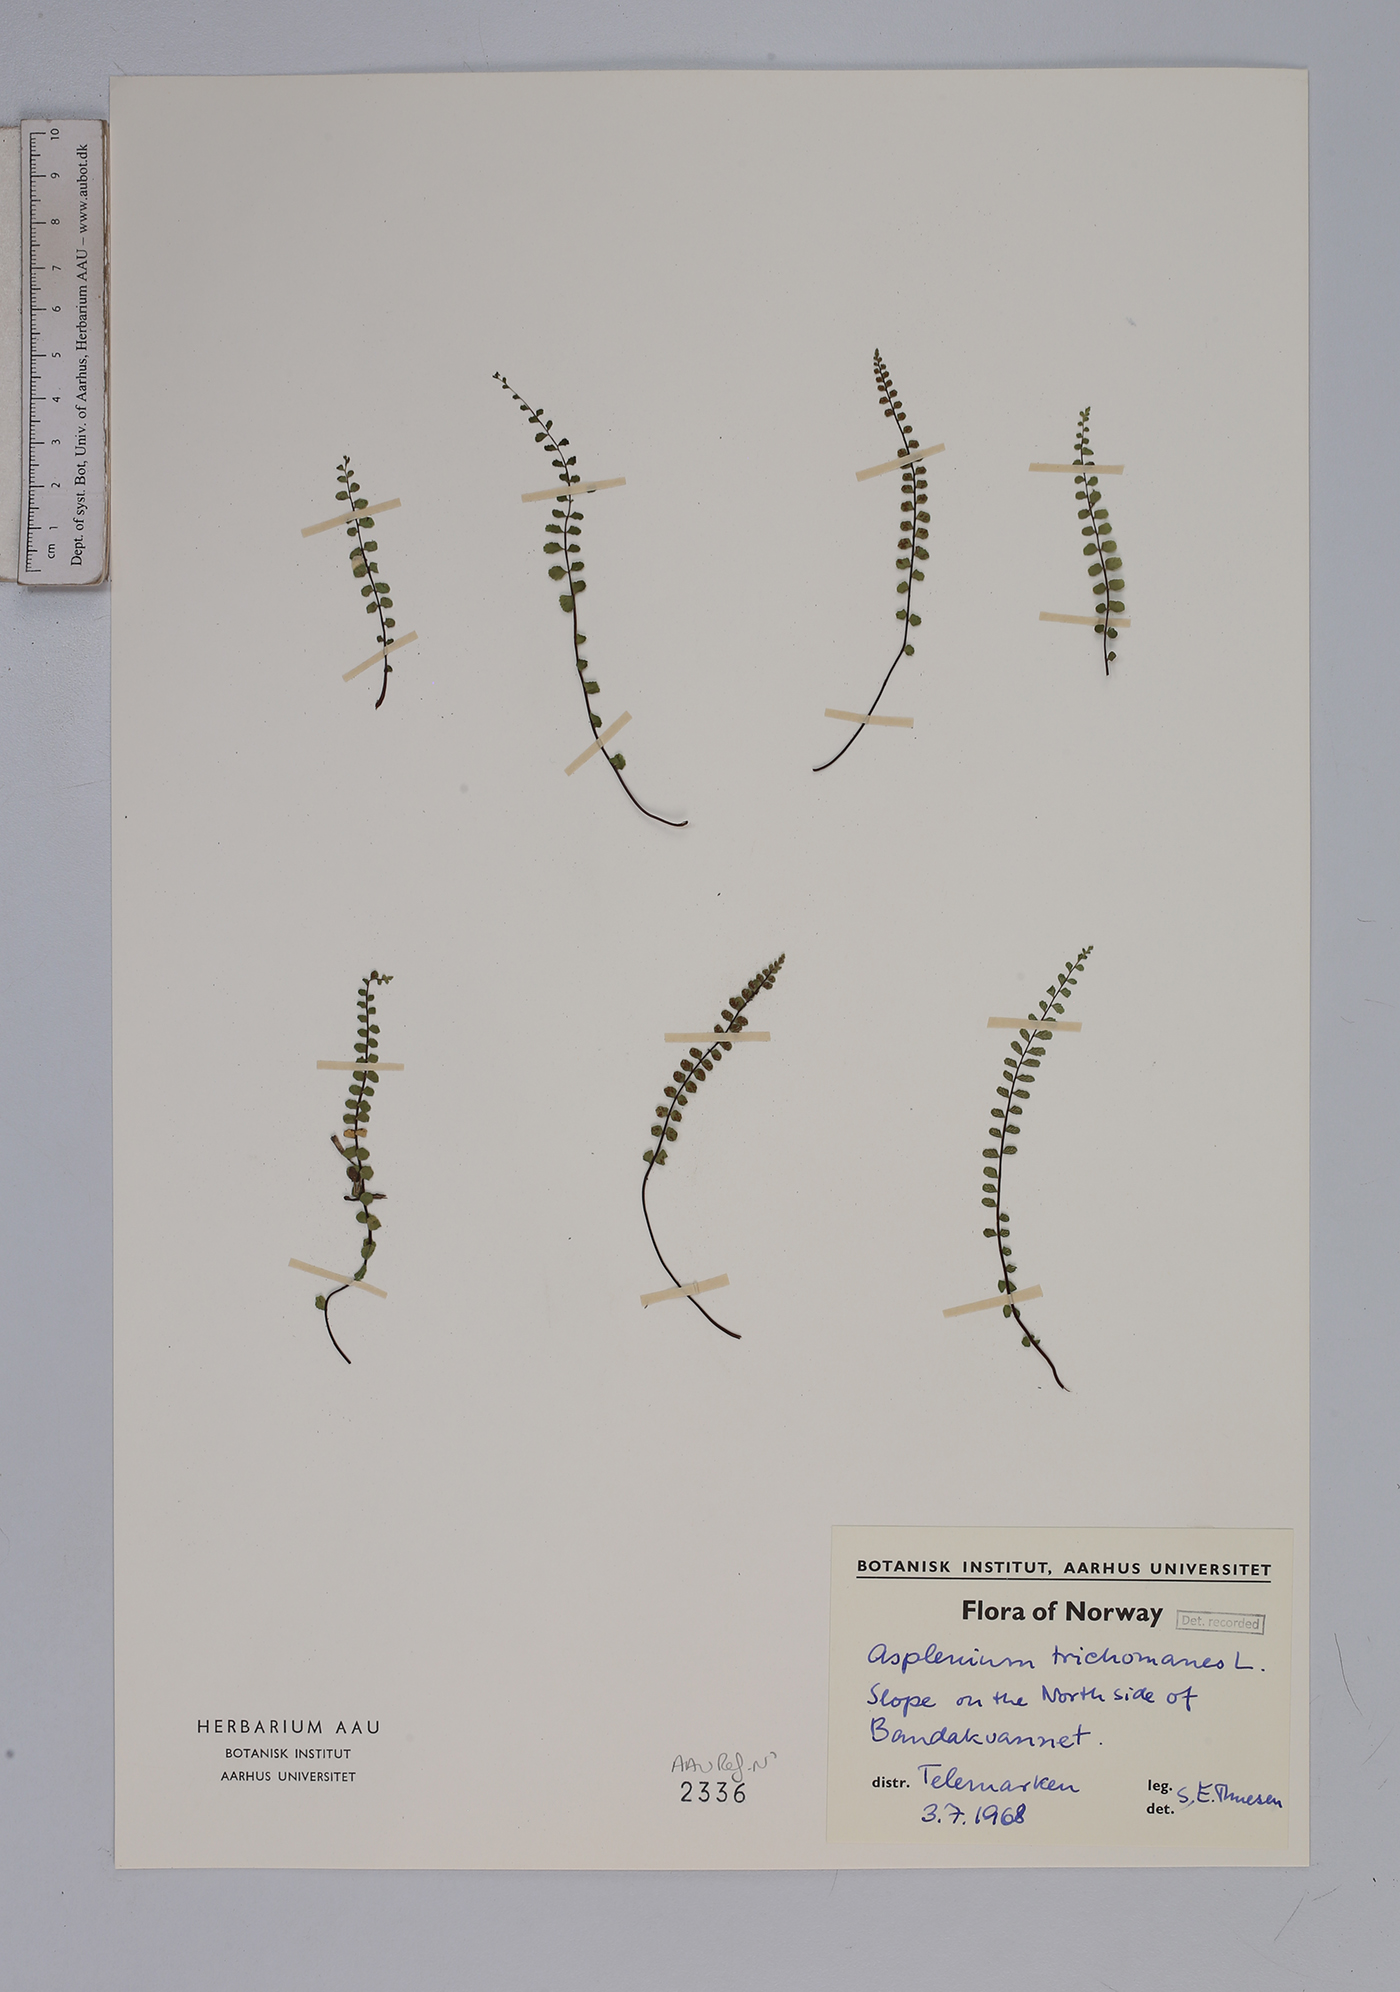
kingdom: Plantae
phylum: Tracheophyta
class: Polypodiopsida
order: Polypodiales
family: Aspleniaceae
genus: Asplenium
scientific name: Asplenium trichomanes
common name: Maidenhair spleenwort
